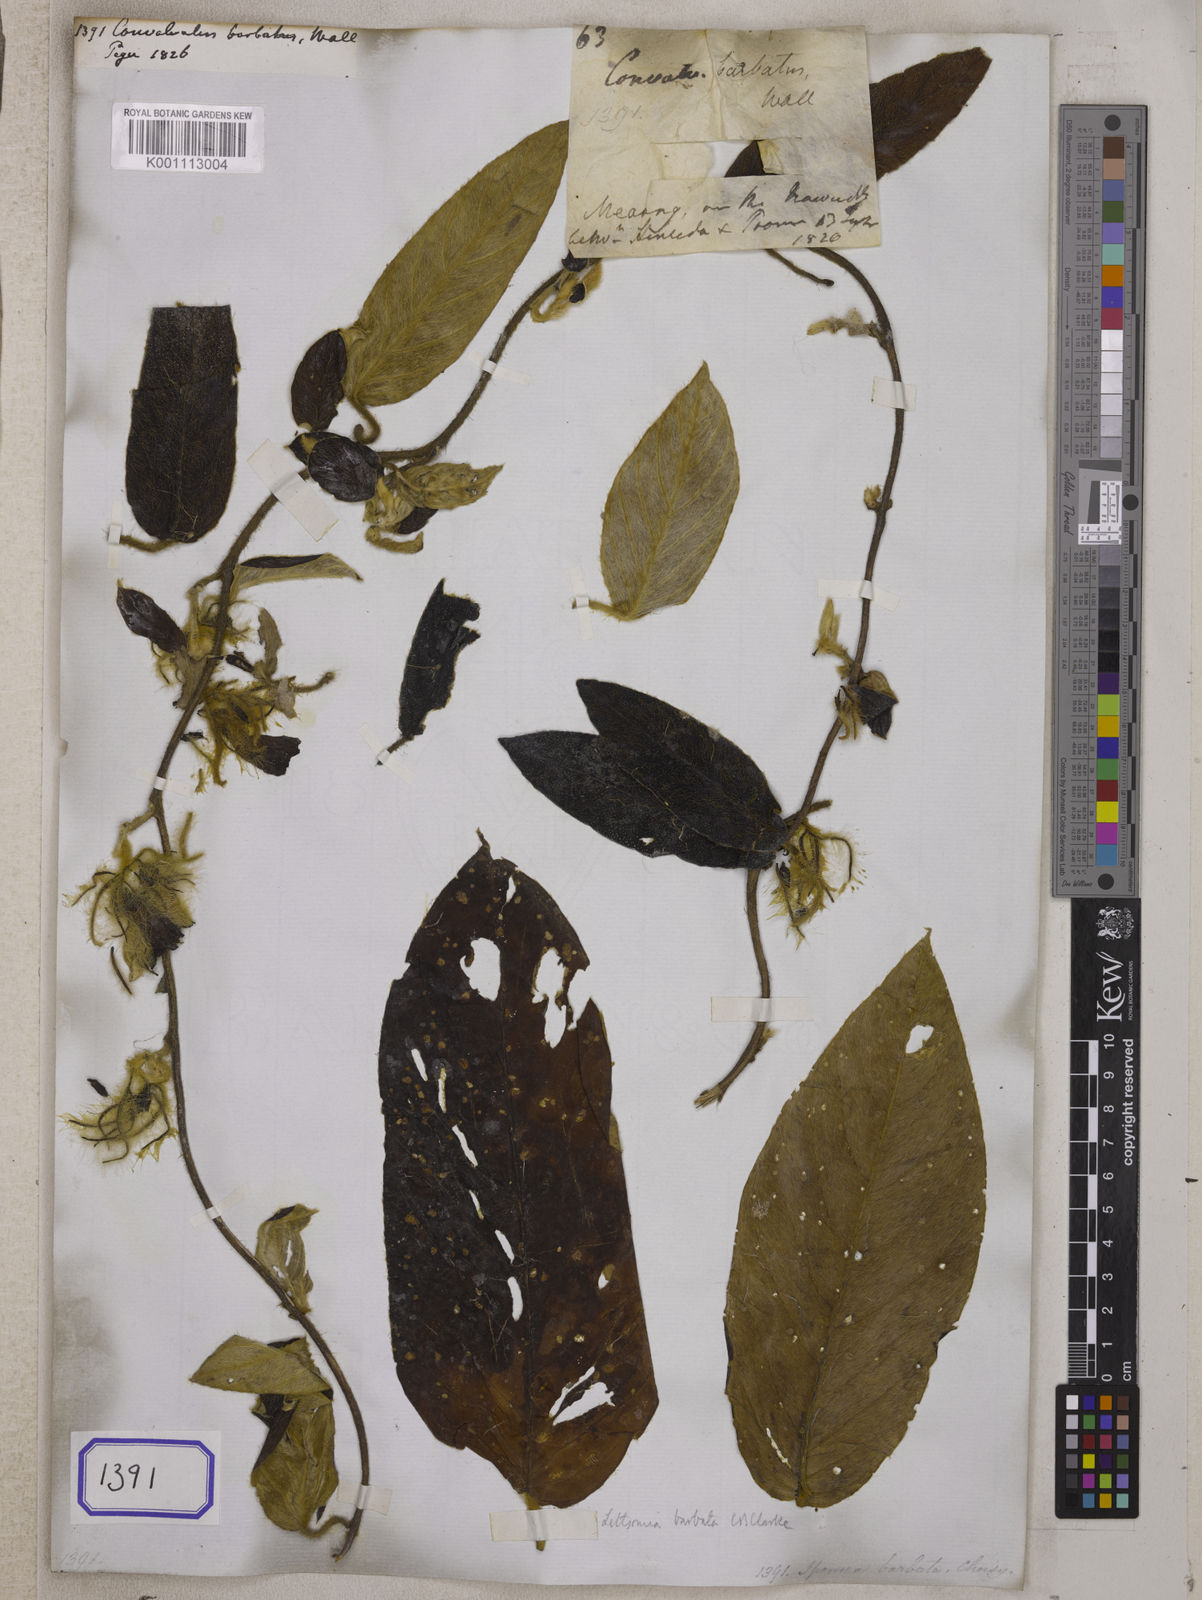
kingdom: Plantae
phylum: Tracheophyta
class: Magnoliopsida
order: Solanales
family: Convolvulaceae
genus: Argyreia
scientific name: Argyreia barbata
